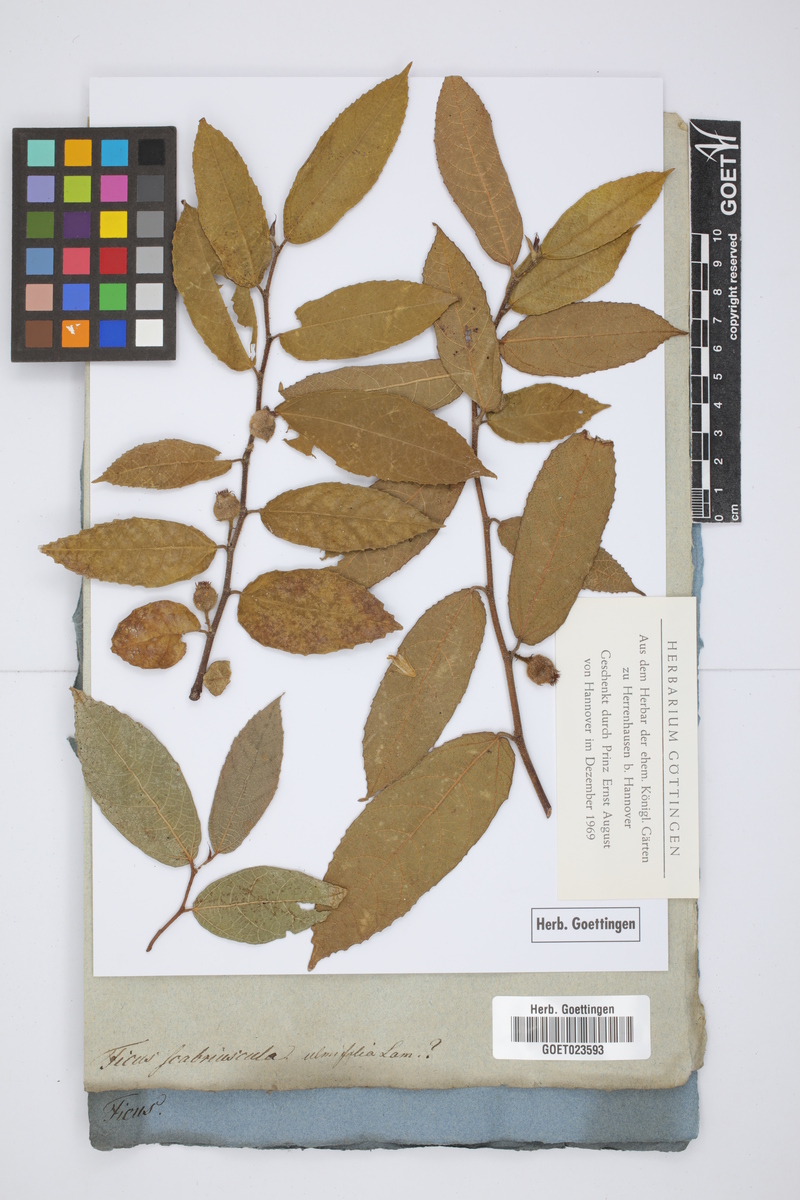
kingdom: Plantae
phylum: Tracheophyta
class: Magnoliopsida
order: Rosales
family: Moraceae
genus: Ficus
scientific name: Ficus ulmifolia
